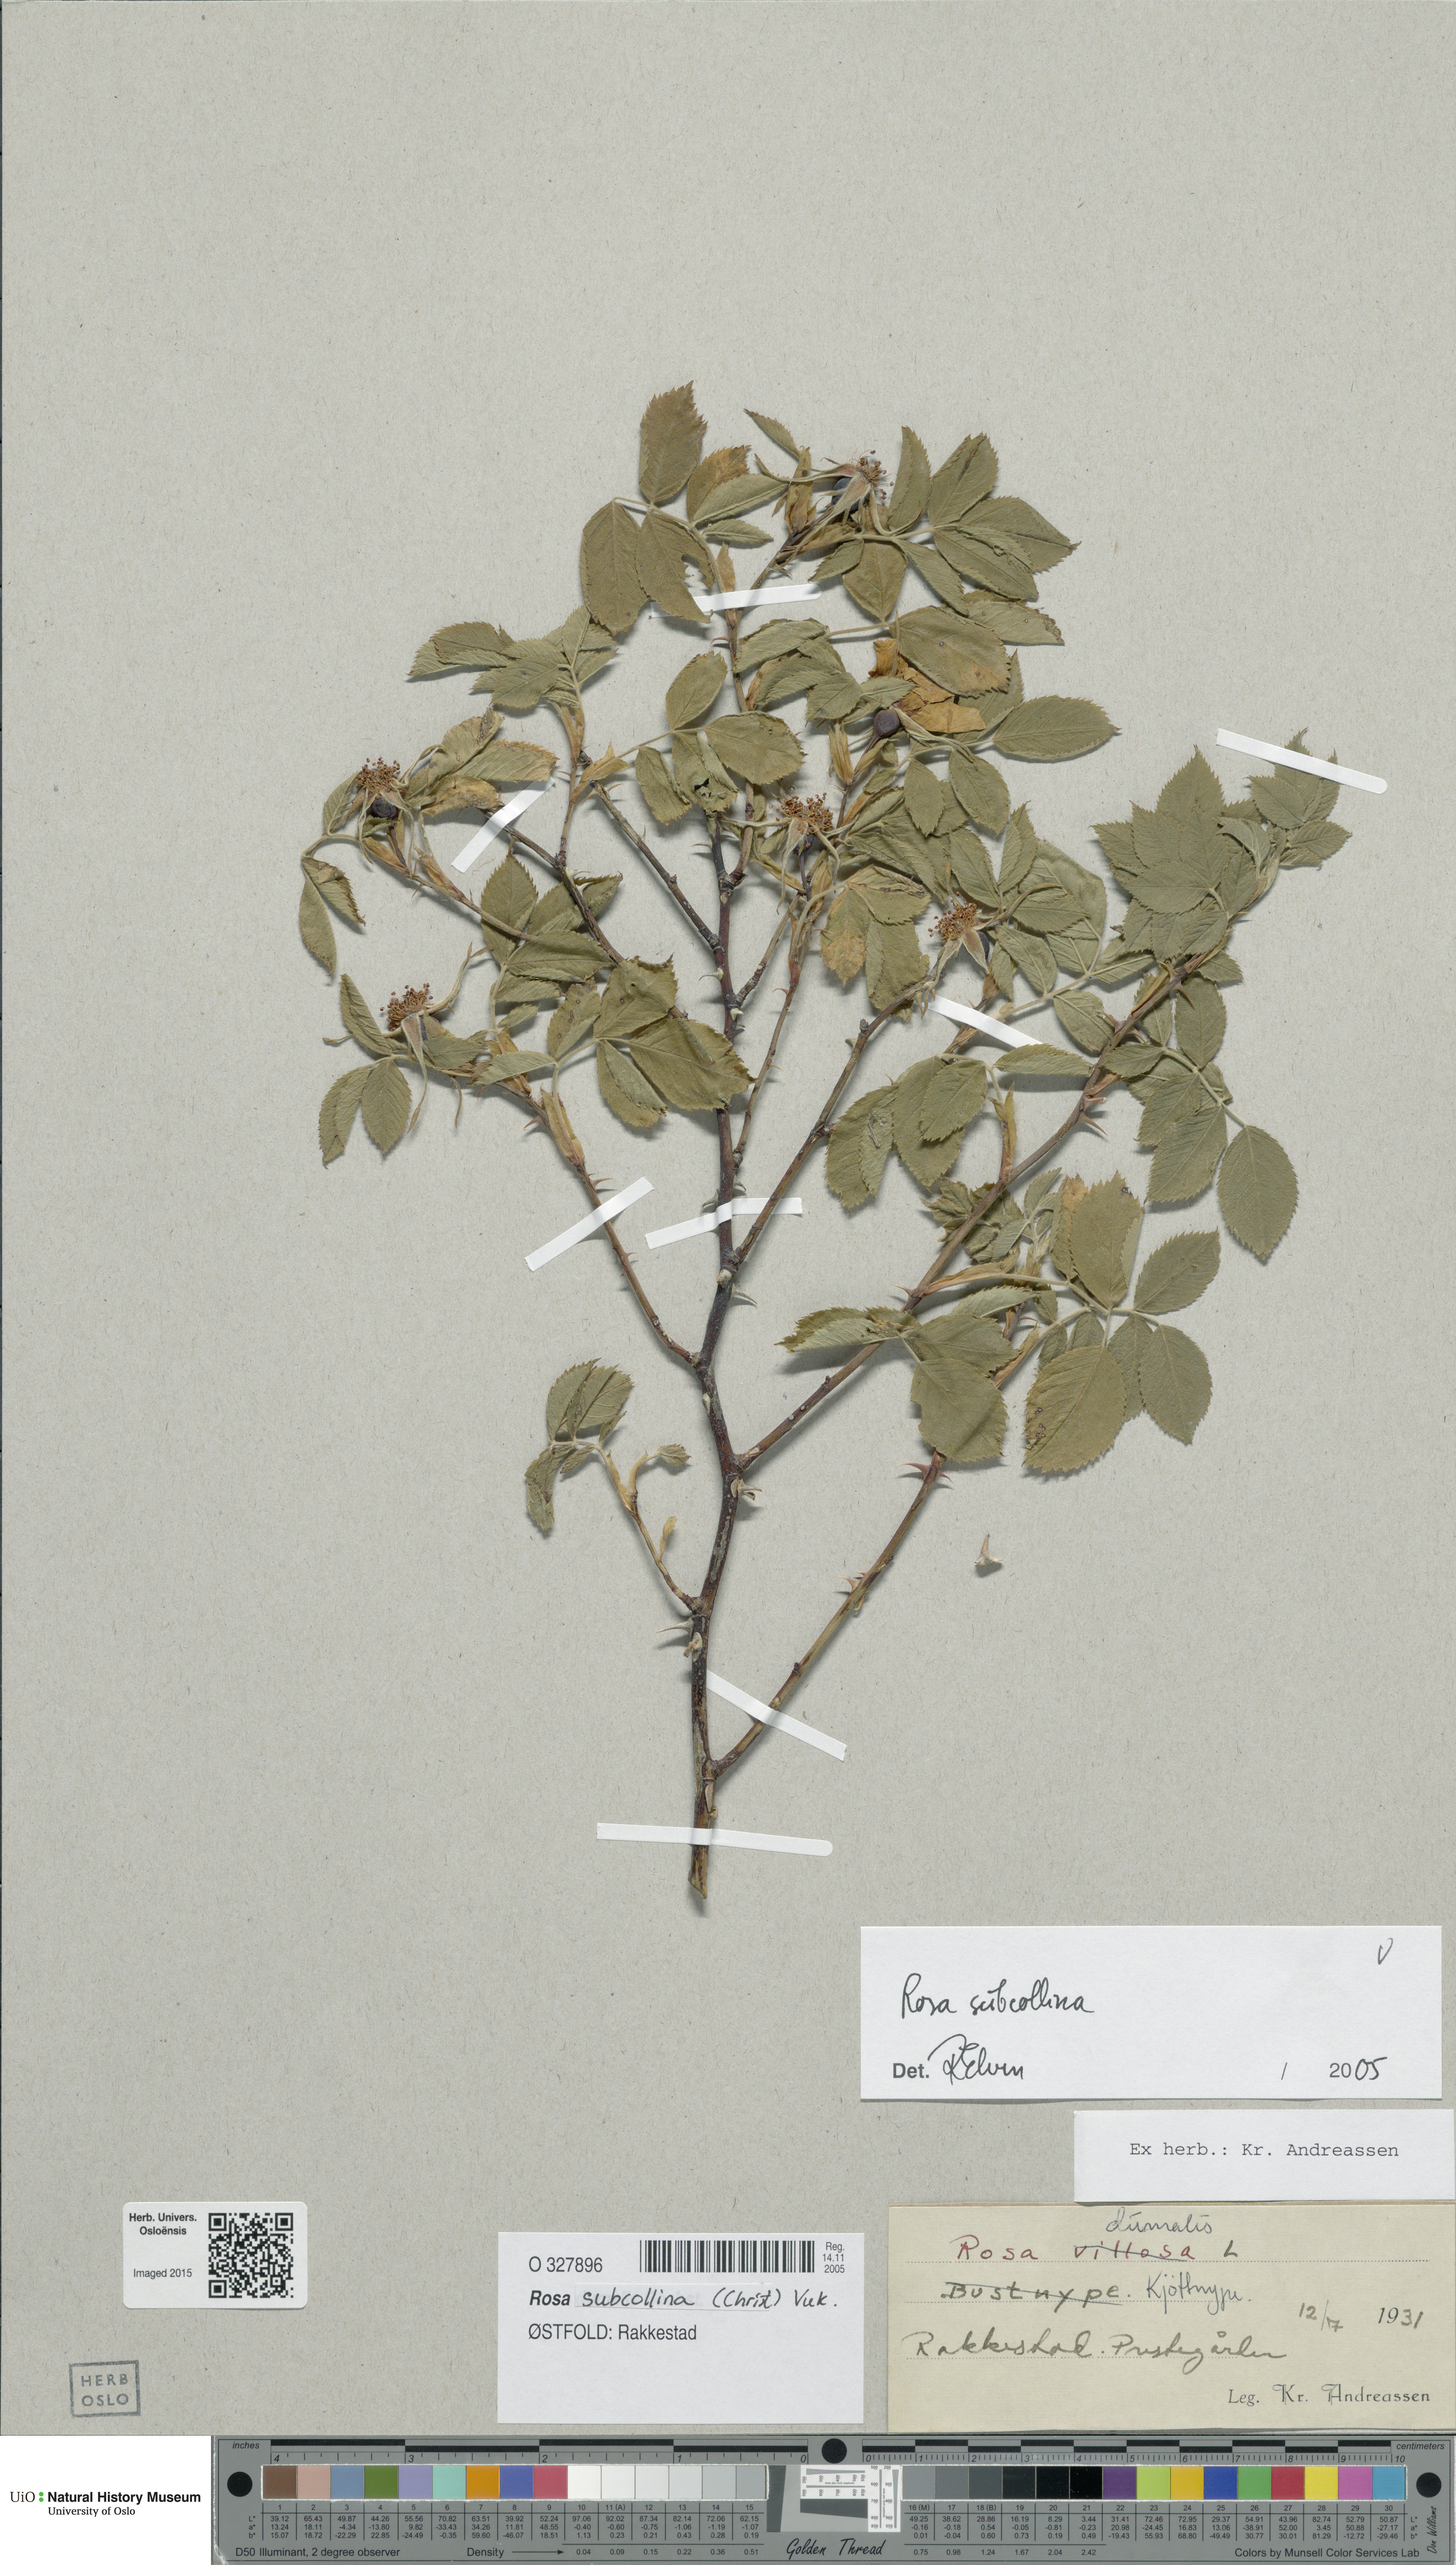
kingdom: Plantae
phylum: Tracheophyta
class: Magnoliopsida
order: Rosales
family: Rosaceae
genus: Rosa
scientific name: Rosa subcollina
